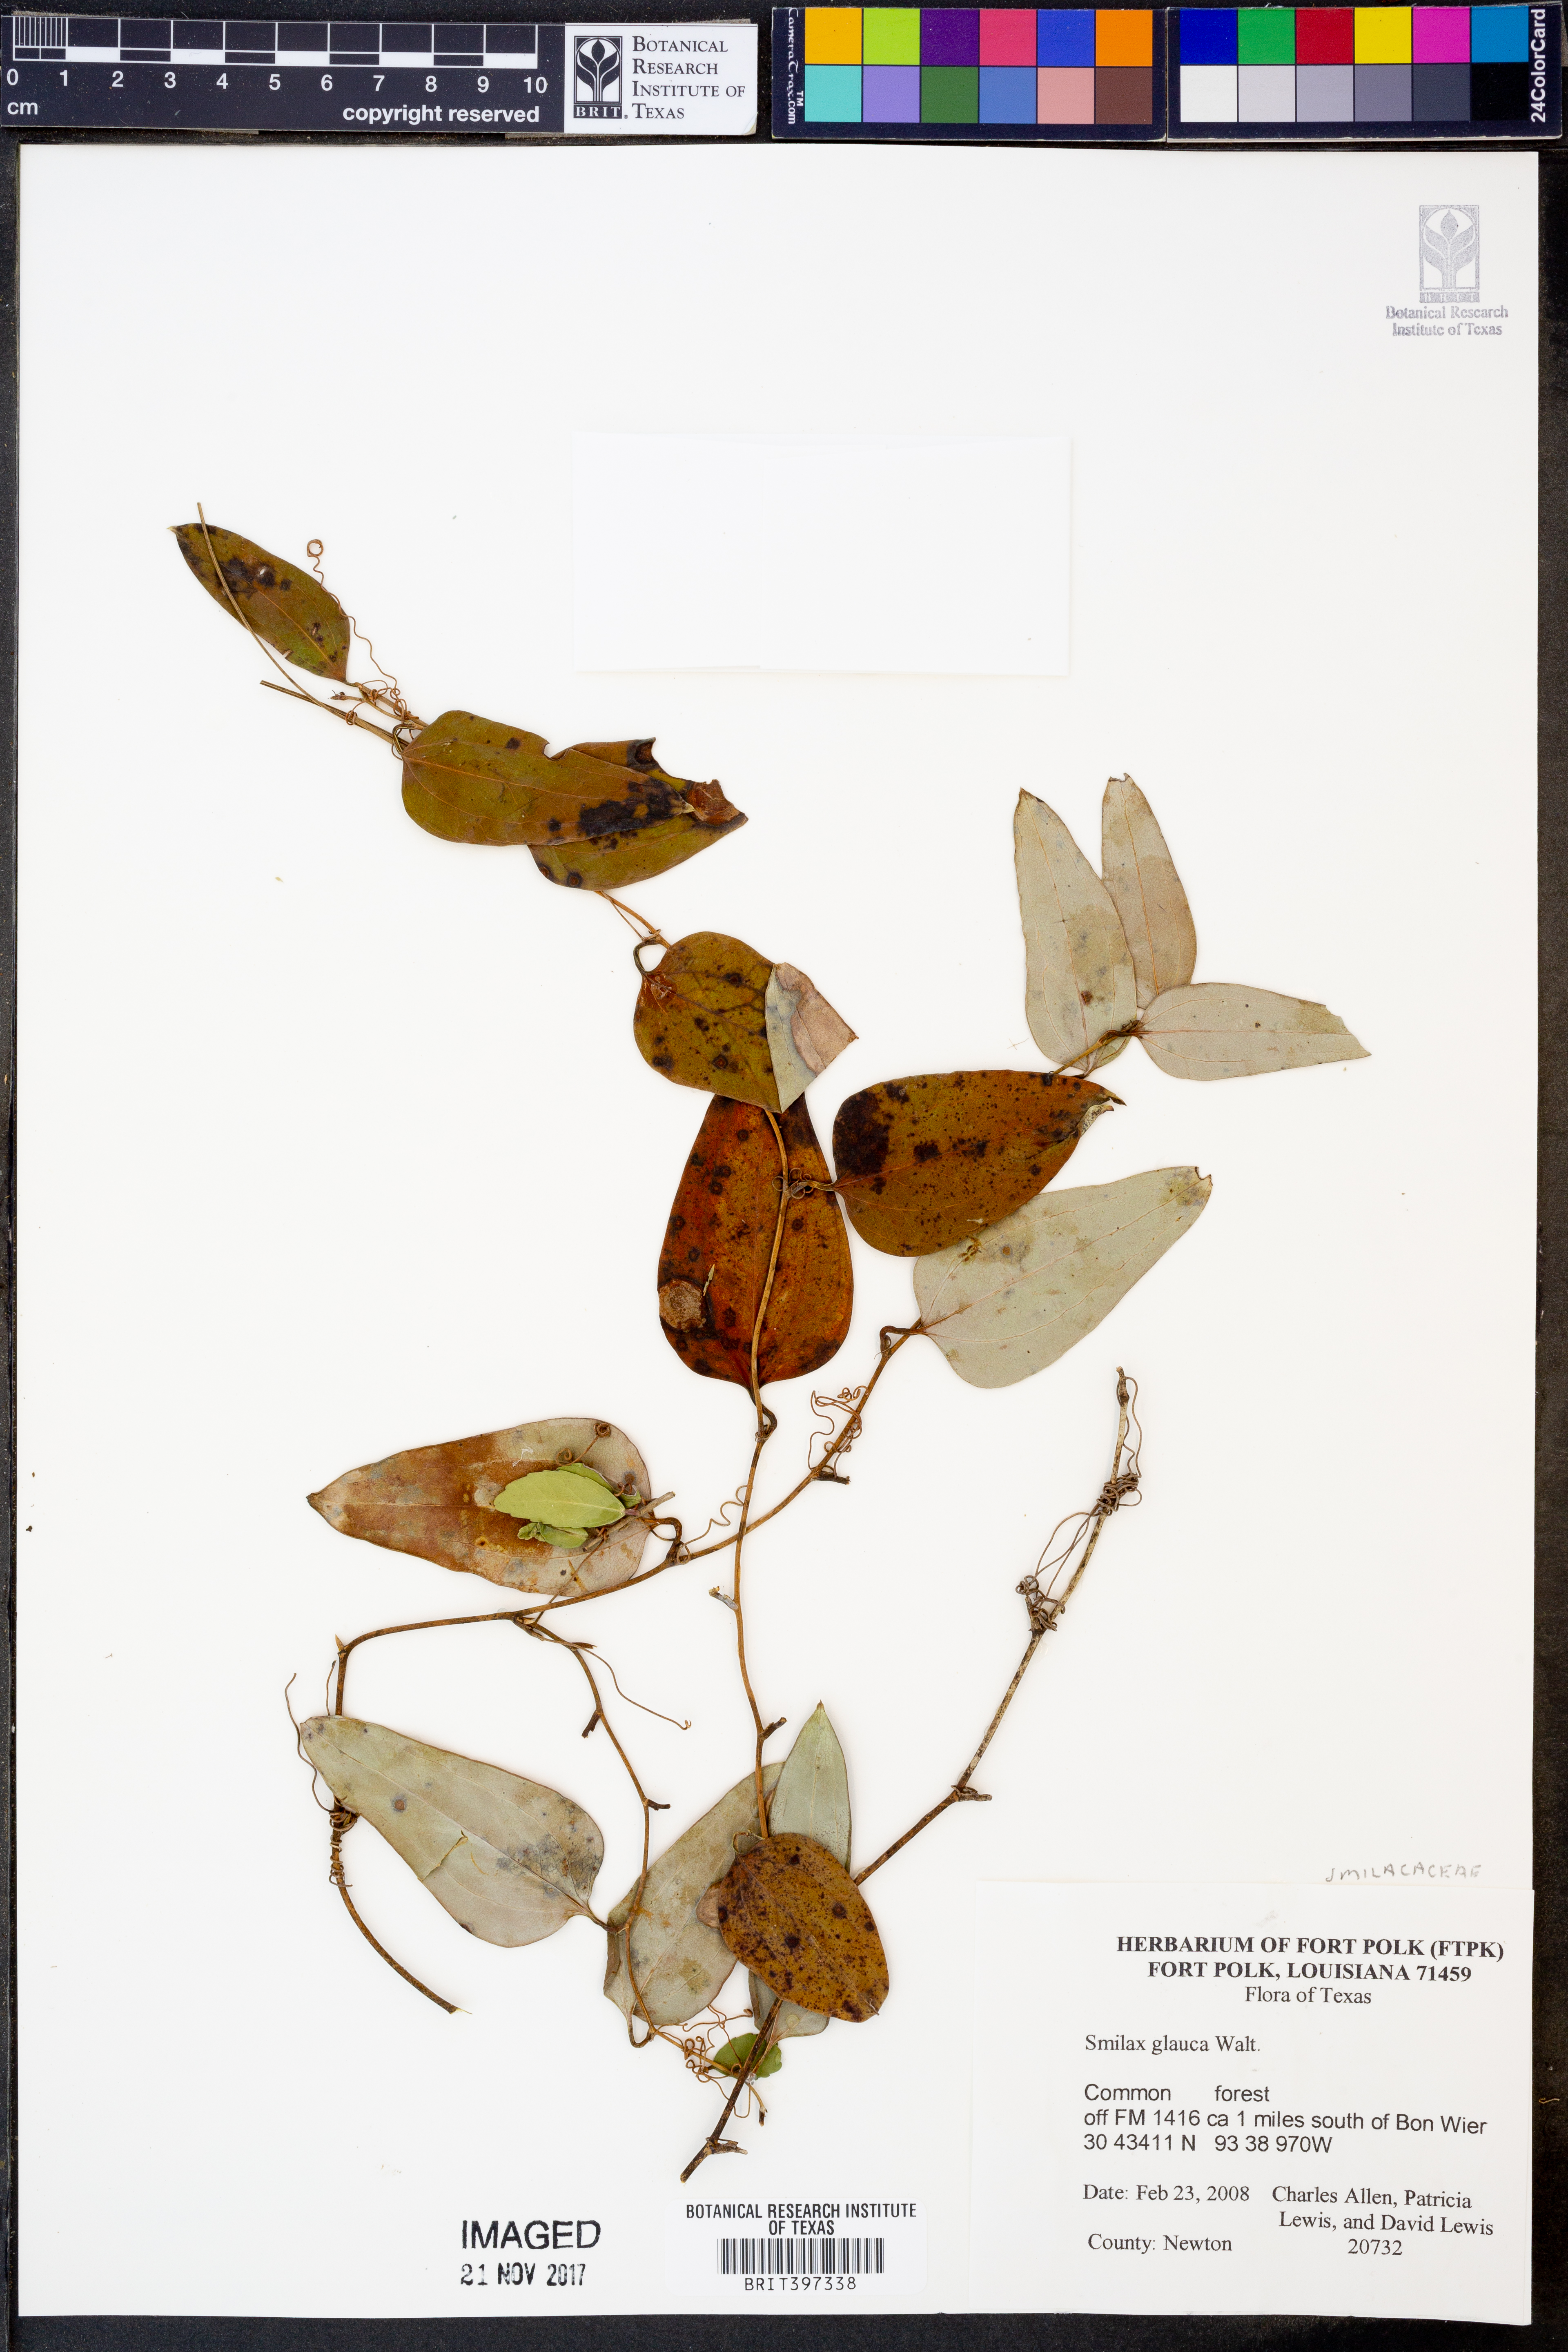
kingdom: Plantae
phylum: Tracheophyta
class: Liliopsida
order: Liliales
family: Smilacaceae
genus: Smilax
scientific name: Smilax glauca
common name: Cat greenbrier
